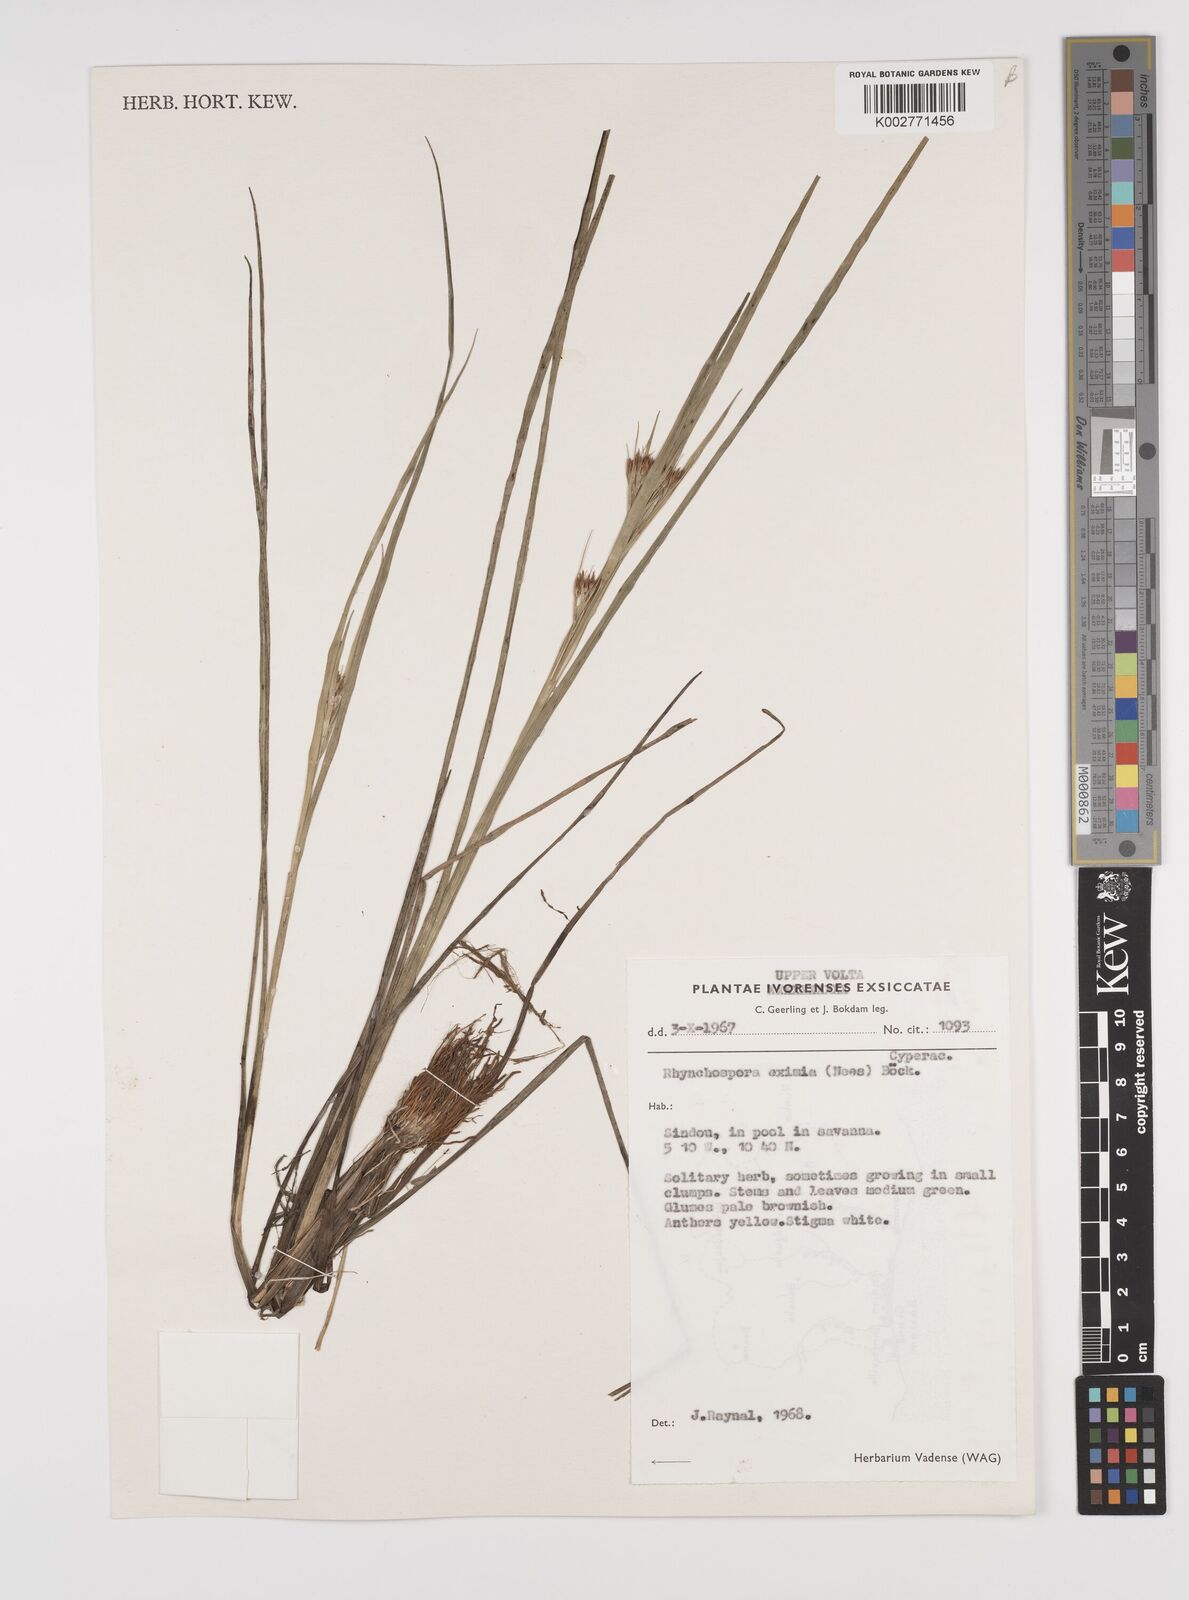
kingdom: Plantae
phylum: Tracheophyta
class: Liliopsida
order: Poales
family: Cyperaceae
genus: Rhynchospora
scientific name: Rhynchospora eximia
